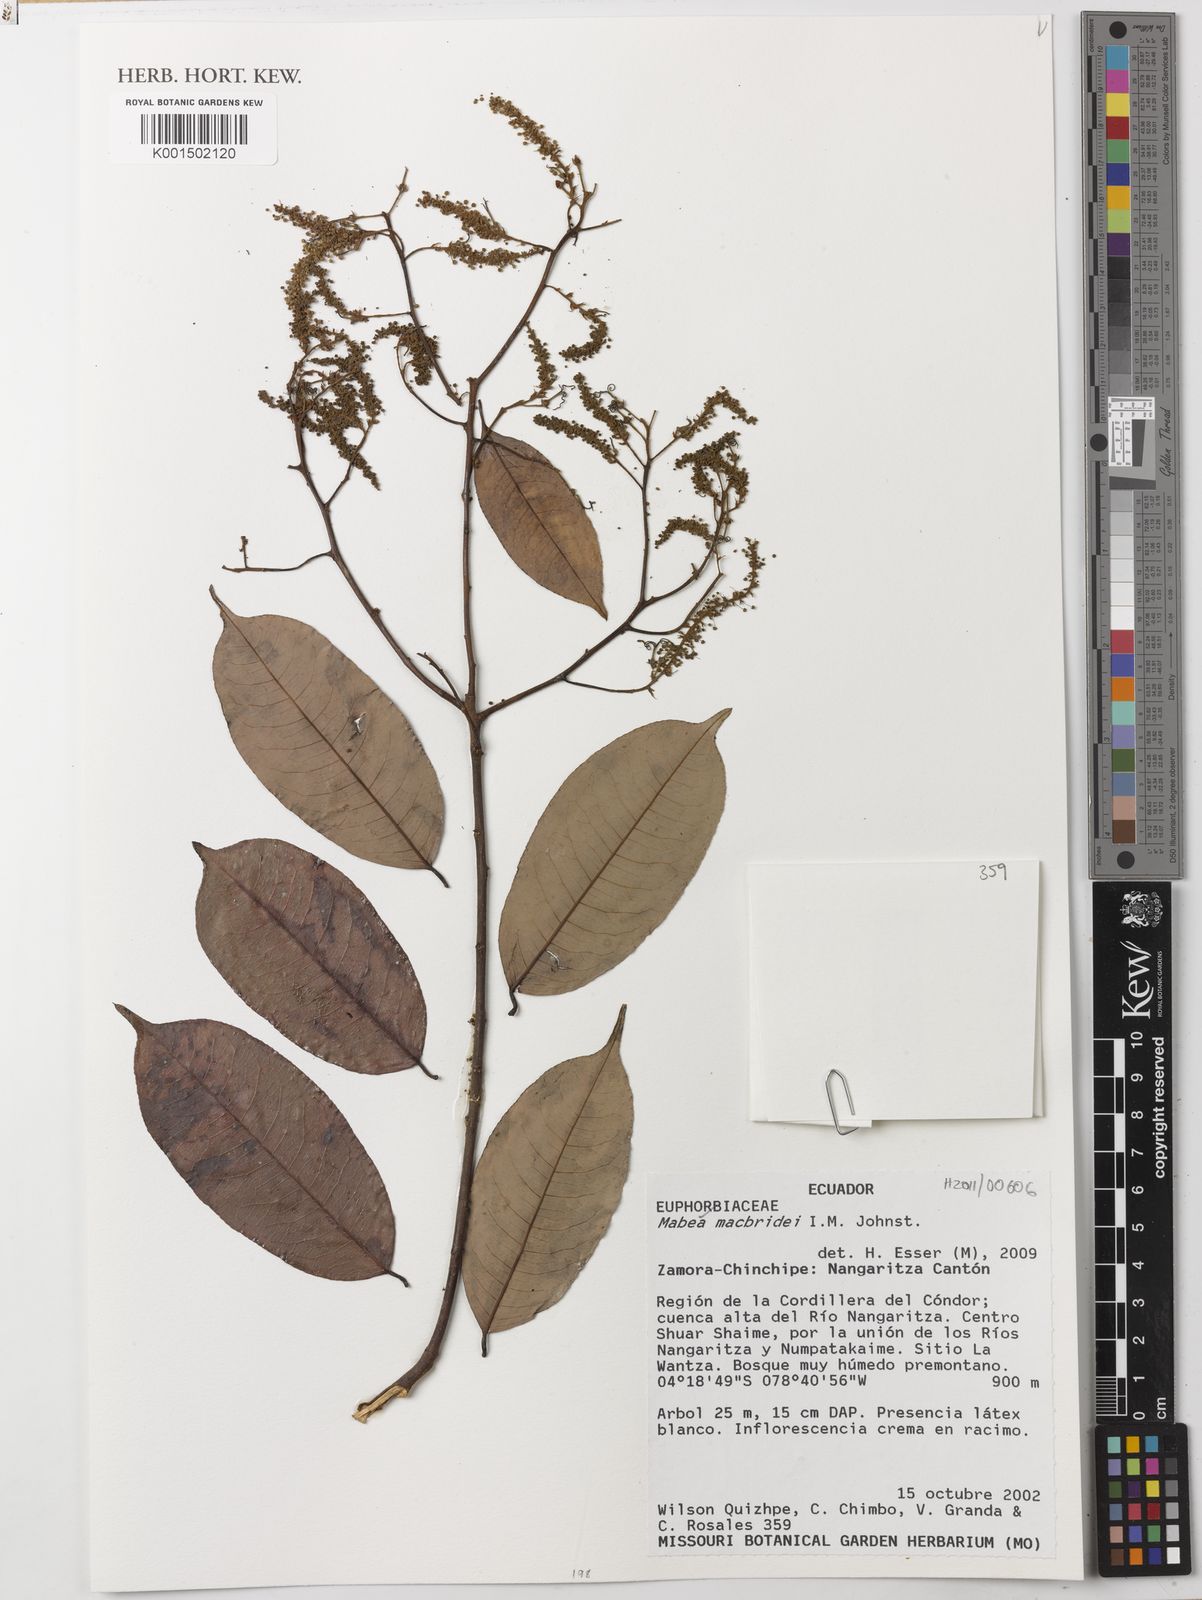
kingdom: Plantae
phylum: Tracheophyta
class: Magnoliopsida
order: Malpighiales
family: Euphorbiaceae
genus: Mabea
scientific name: Mabea macbridei
